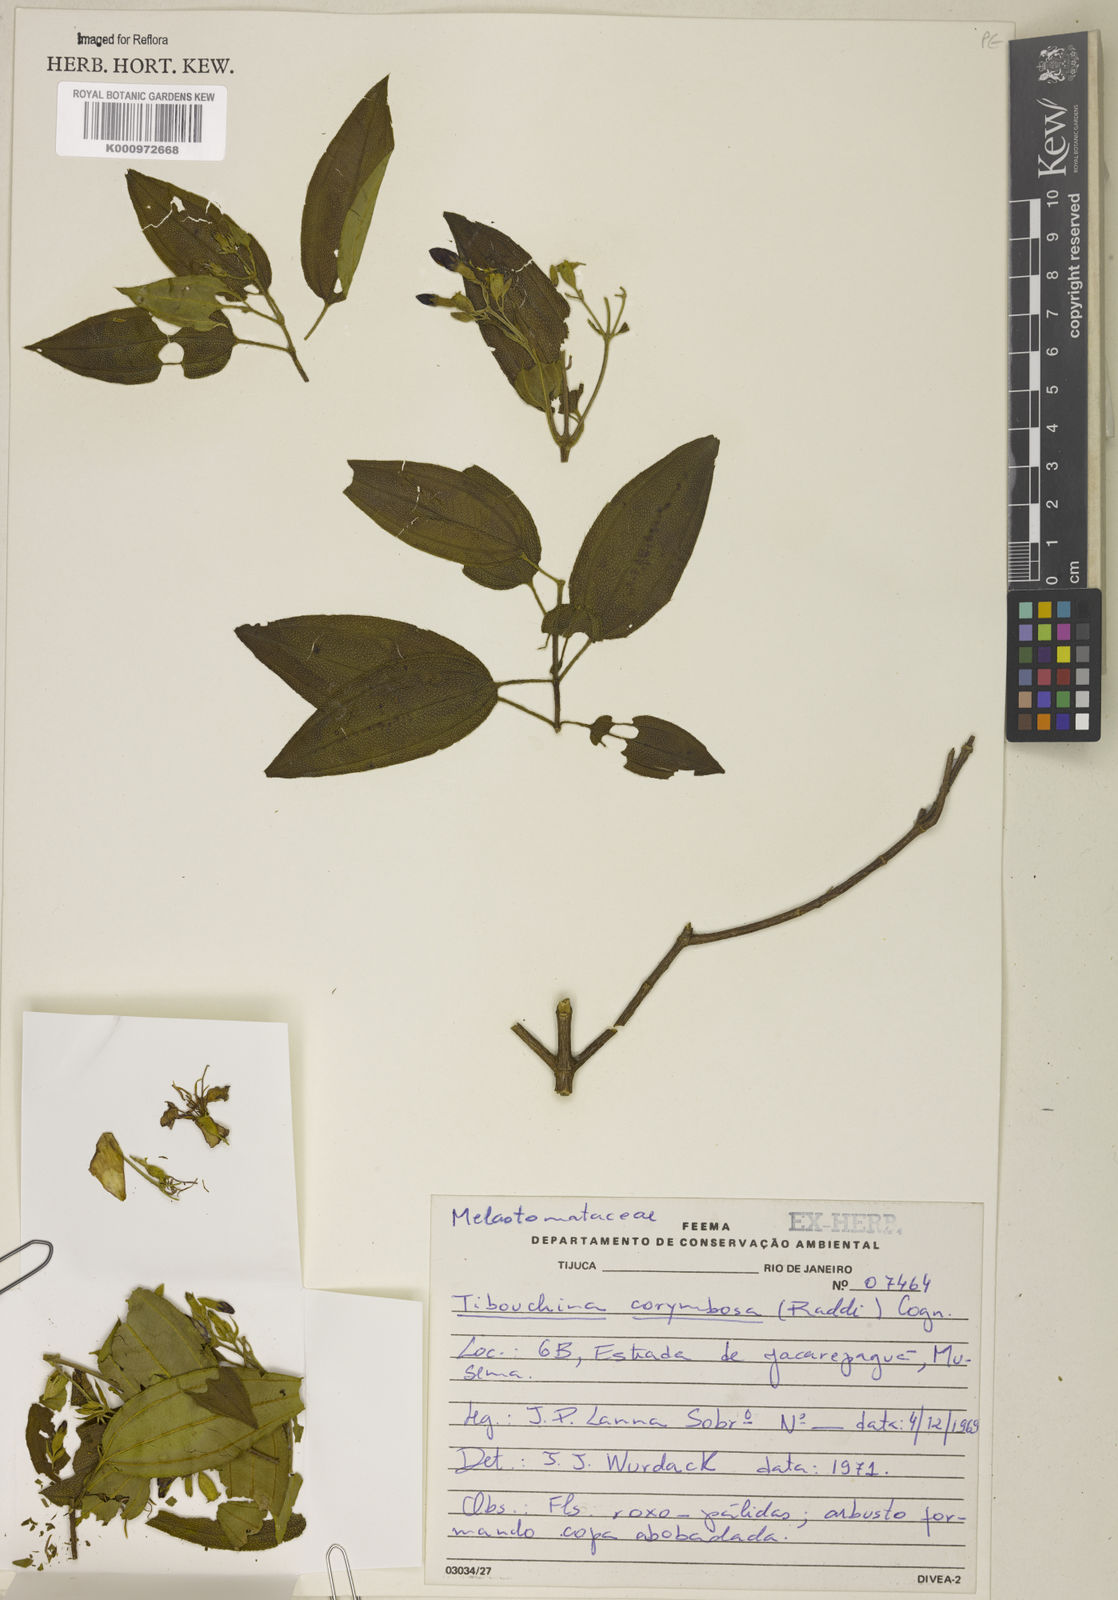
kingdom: Plantae
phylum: Tracheophyta
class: Magnoliopsida
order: Myrtales
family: Melastomataceae
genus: Pleroma
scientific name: Pleroma vimineum
